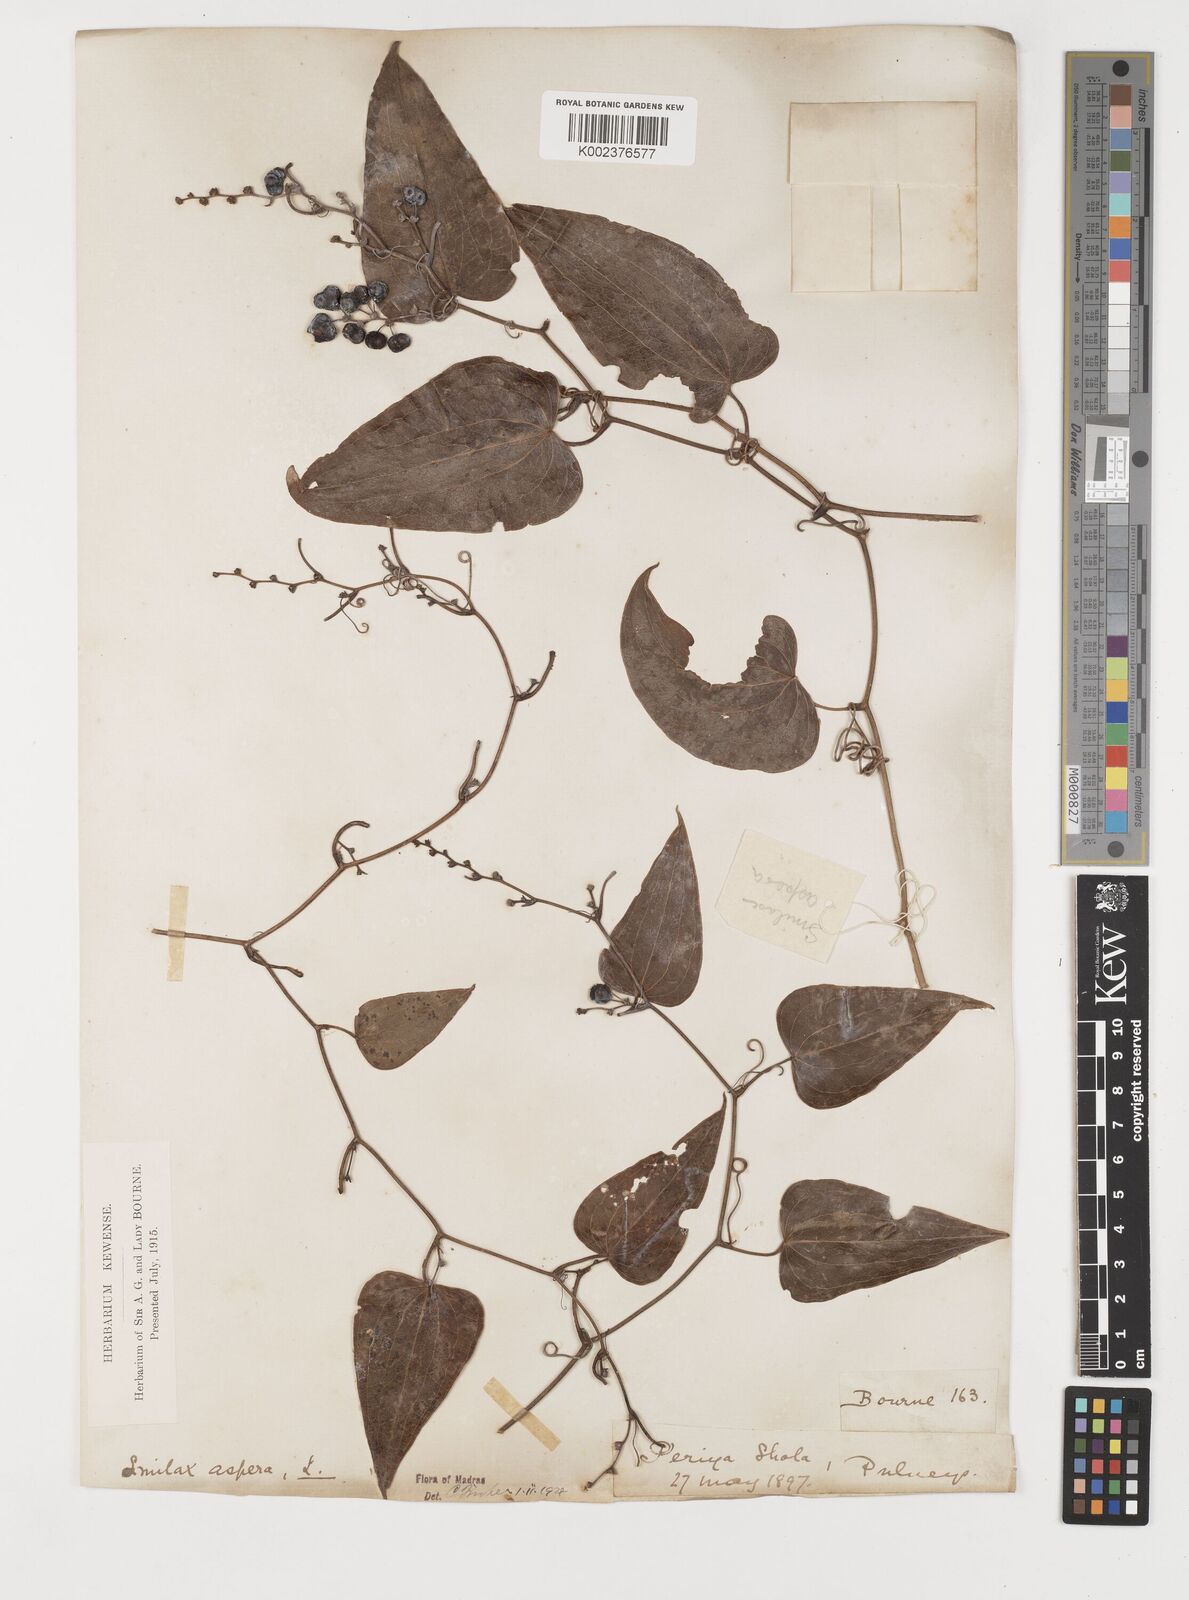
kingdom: Plantae
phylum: Tracheophyta
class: Liliopsida
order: Liliales
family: Smilacaceae
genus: Smilax
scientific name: Smilax aspera
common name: Common smilax
